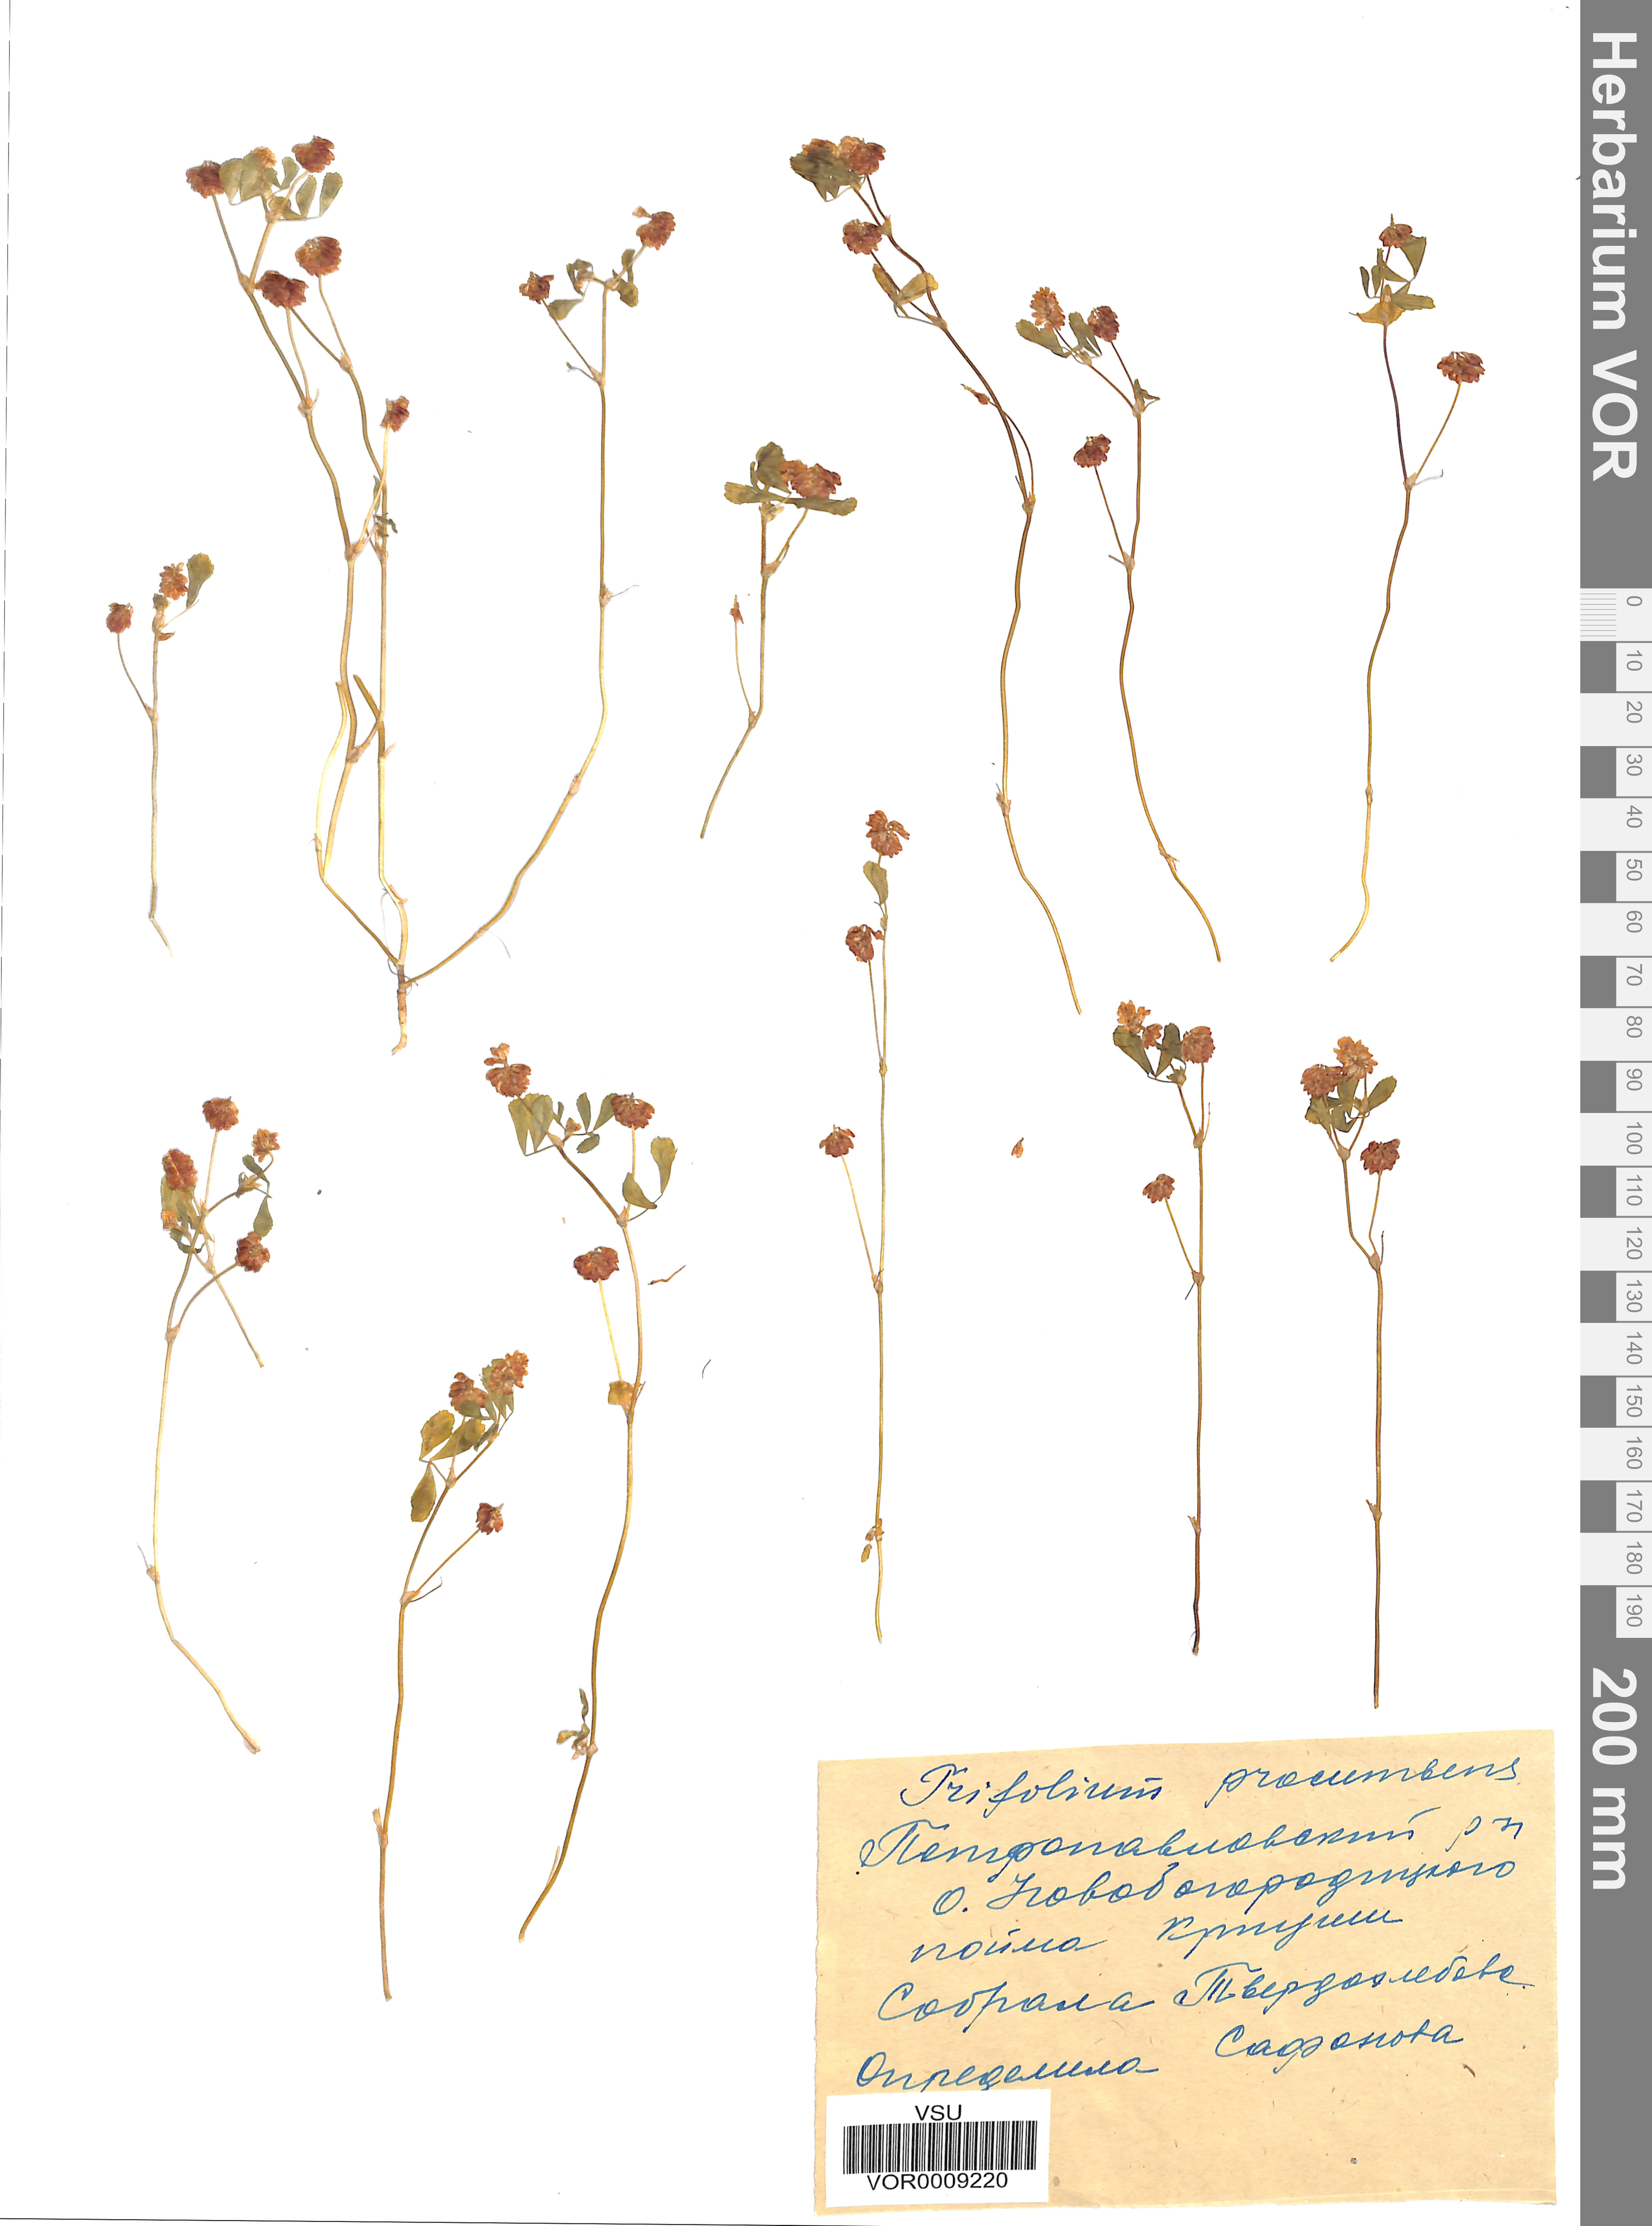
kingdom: Plantae
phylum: Tracheophyta
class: Magnoliopsida
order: Fabales
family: Fabaceae
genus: Trifolium
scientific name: Trifolium campestre
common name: Field clover
